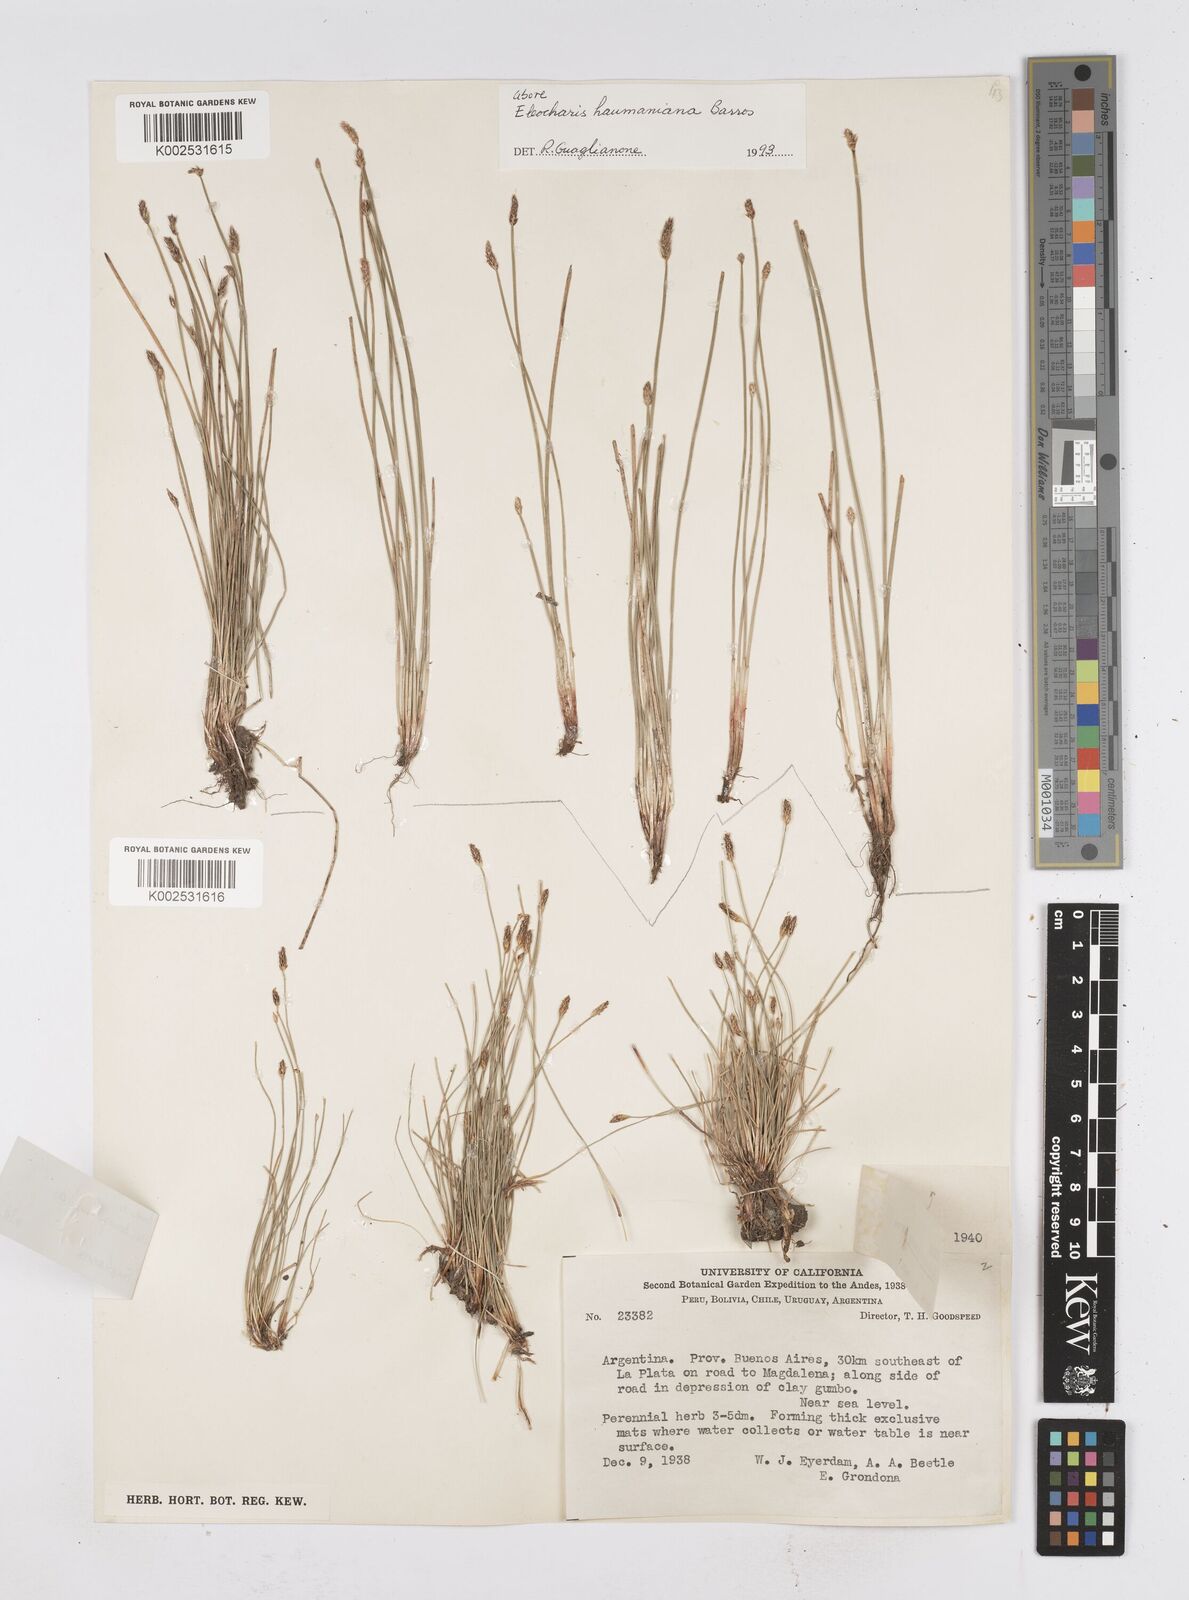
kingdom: Plantae
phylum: Tracheophyta
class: Liliopsida
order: Poales
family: Cyperaceae
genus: Eleocharis
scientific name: Eleocharis haumaniana
